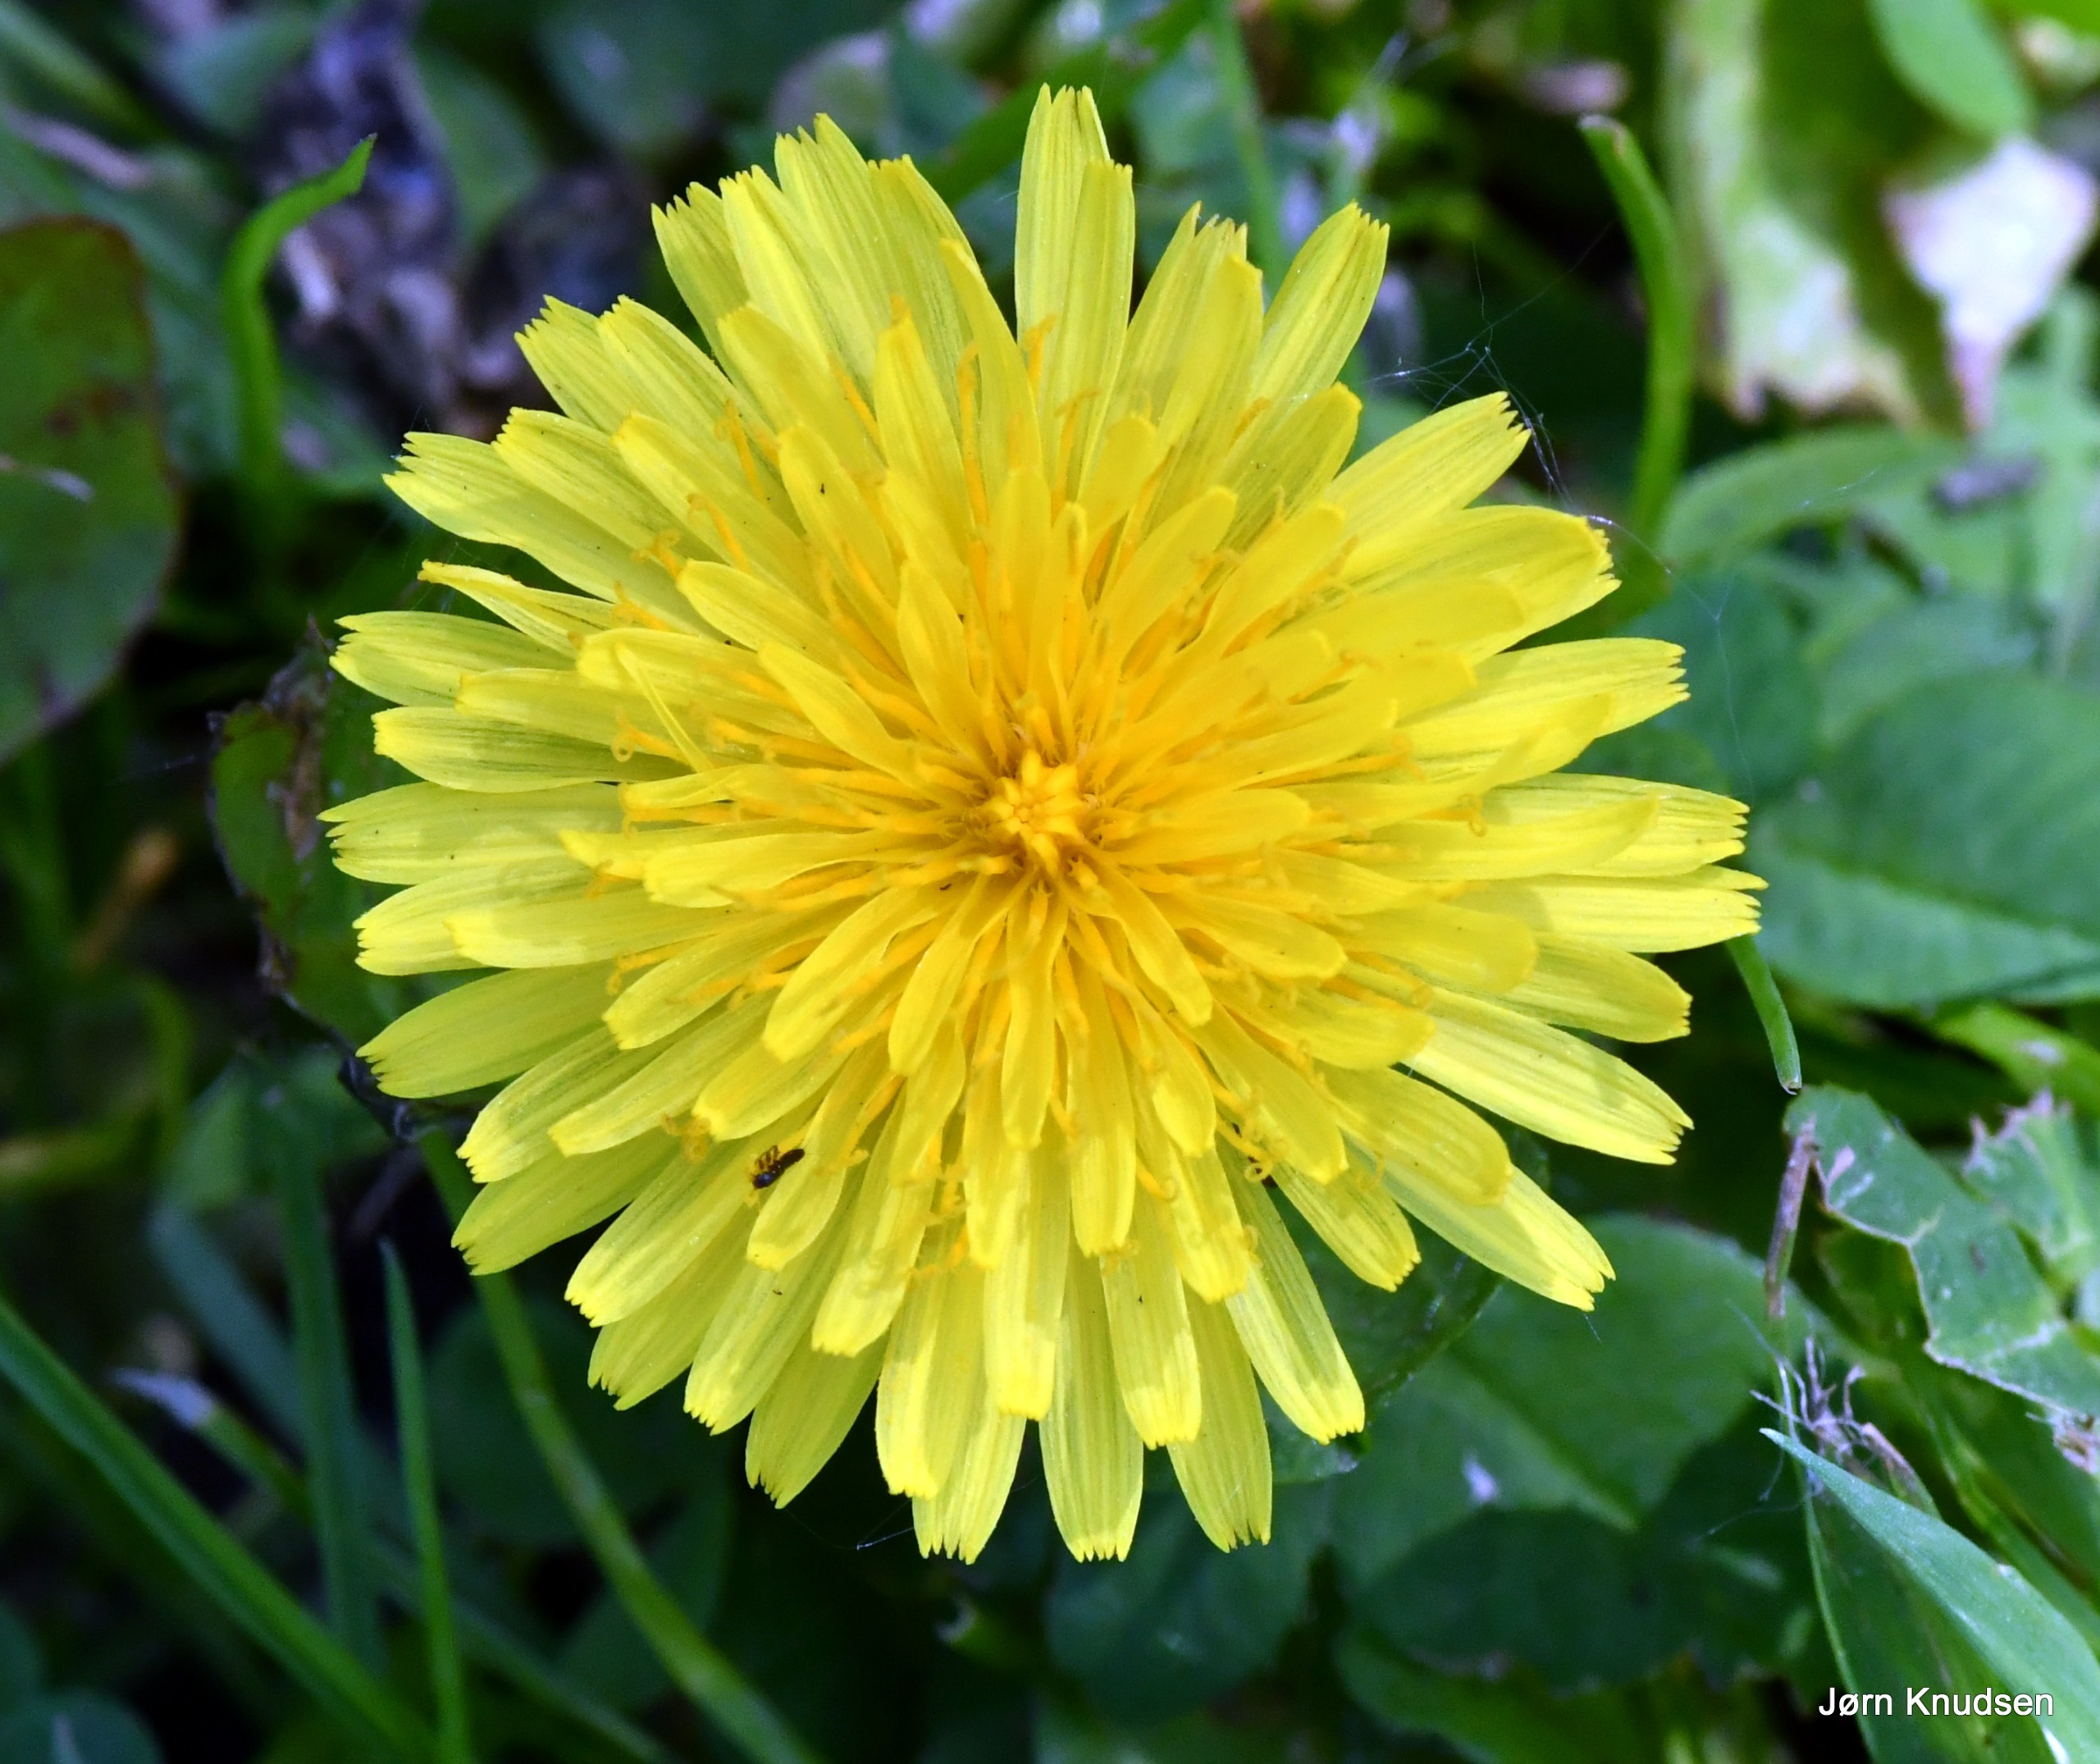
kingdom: Plantae
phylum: Tracheophyta
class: Magnoliopsida
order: Asterales
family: Asteraceae
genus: Taraxacum
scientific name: Taraxacum
